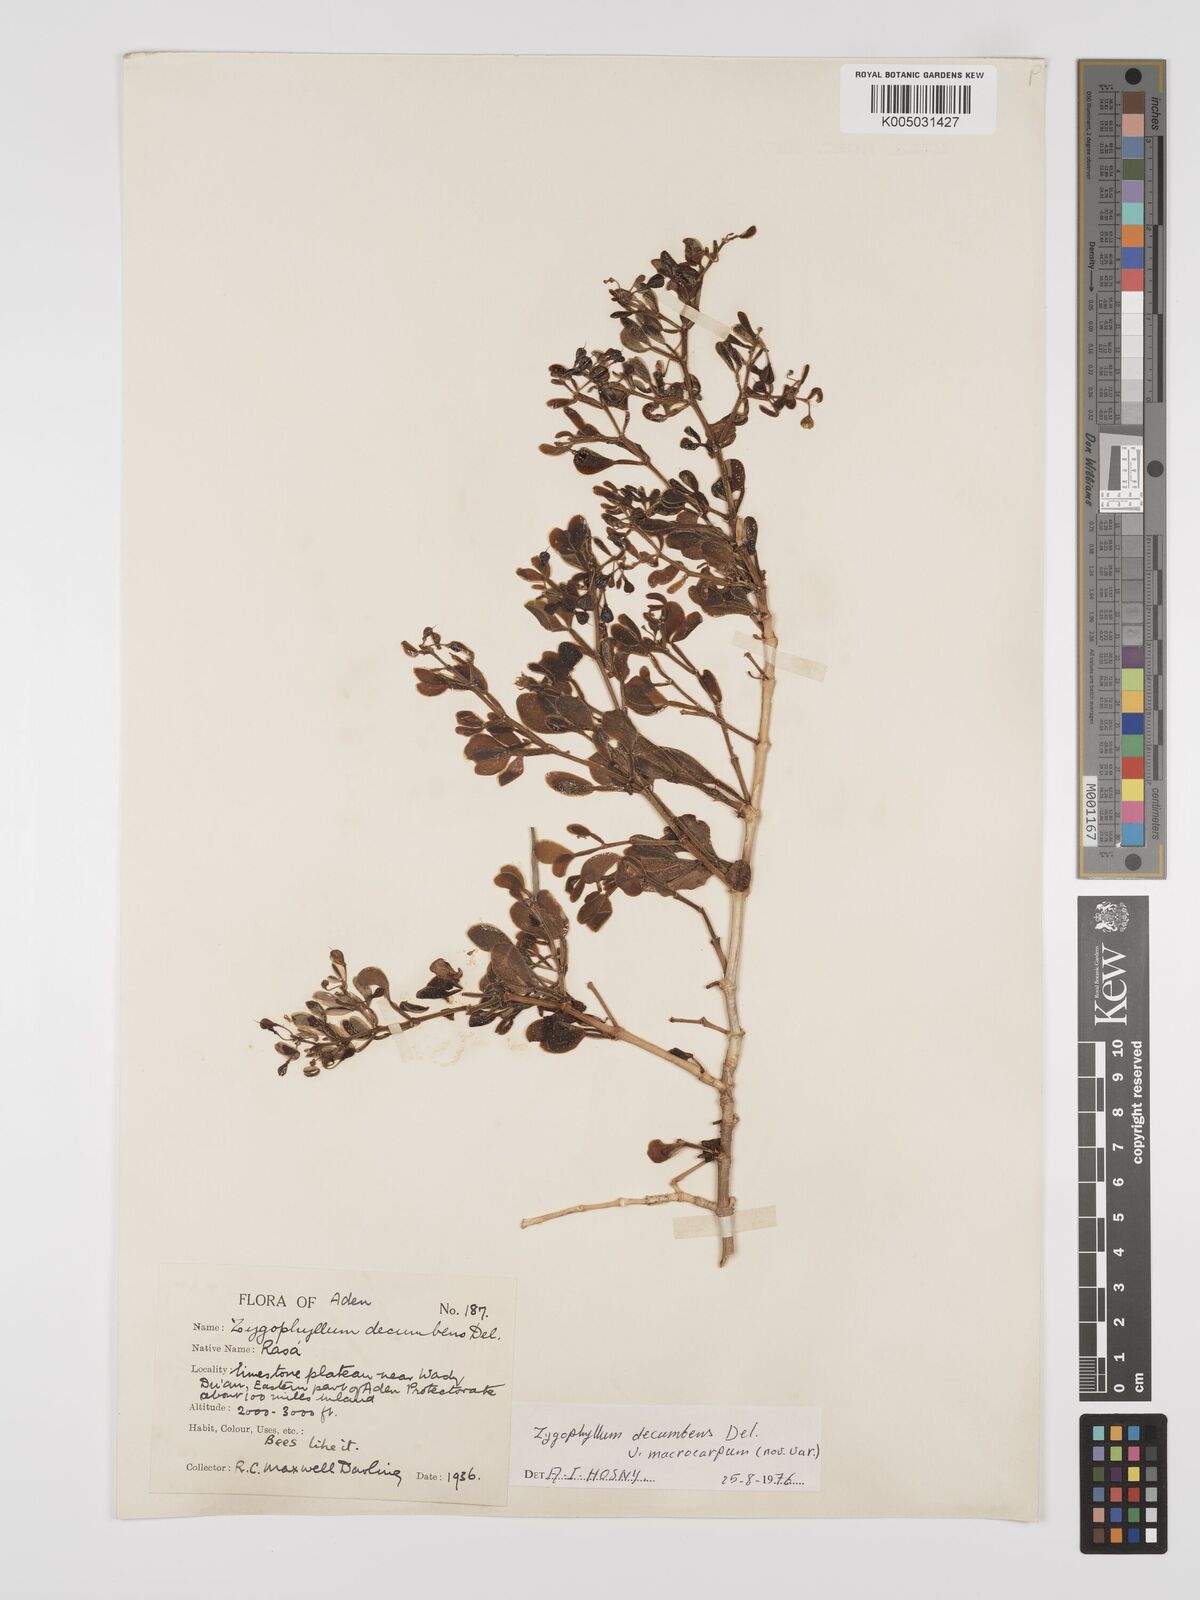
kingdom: Plantae
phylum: Tracheophyta
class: Magnoliopsida
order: Zygophyllales
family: Zygophyllaceae
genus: Tetraena
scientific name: Tetraena decumbens
